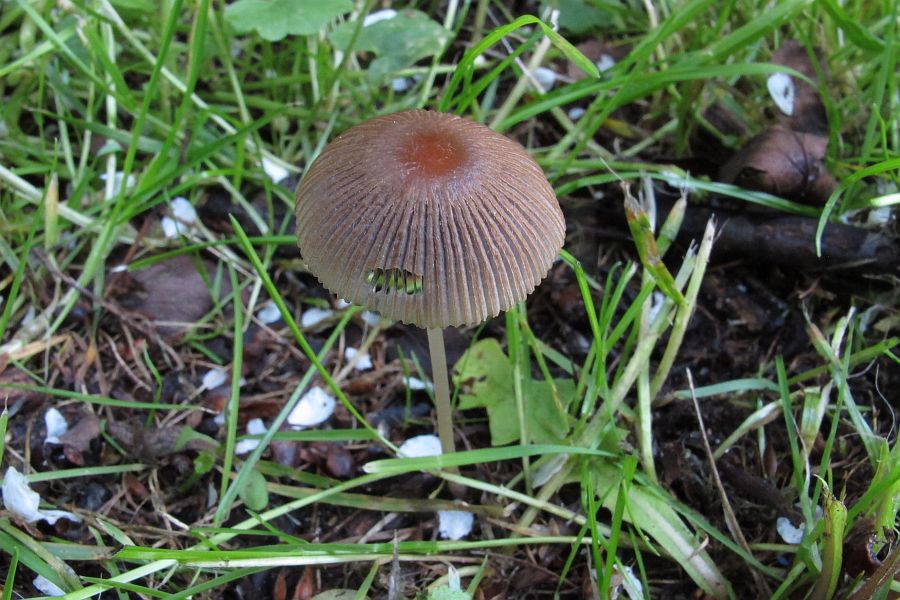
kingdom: Fungi
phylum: Basidiomycota
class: Agaricomycetes
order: Agaricales
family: Psathyrellaceae
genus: Parasola
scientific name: Parasola auricoma
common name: hansens hjulhat
